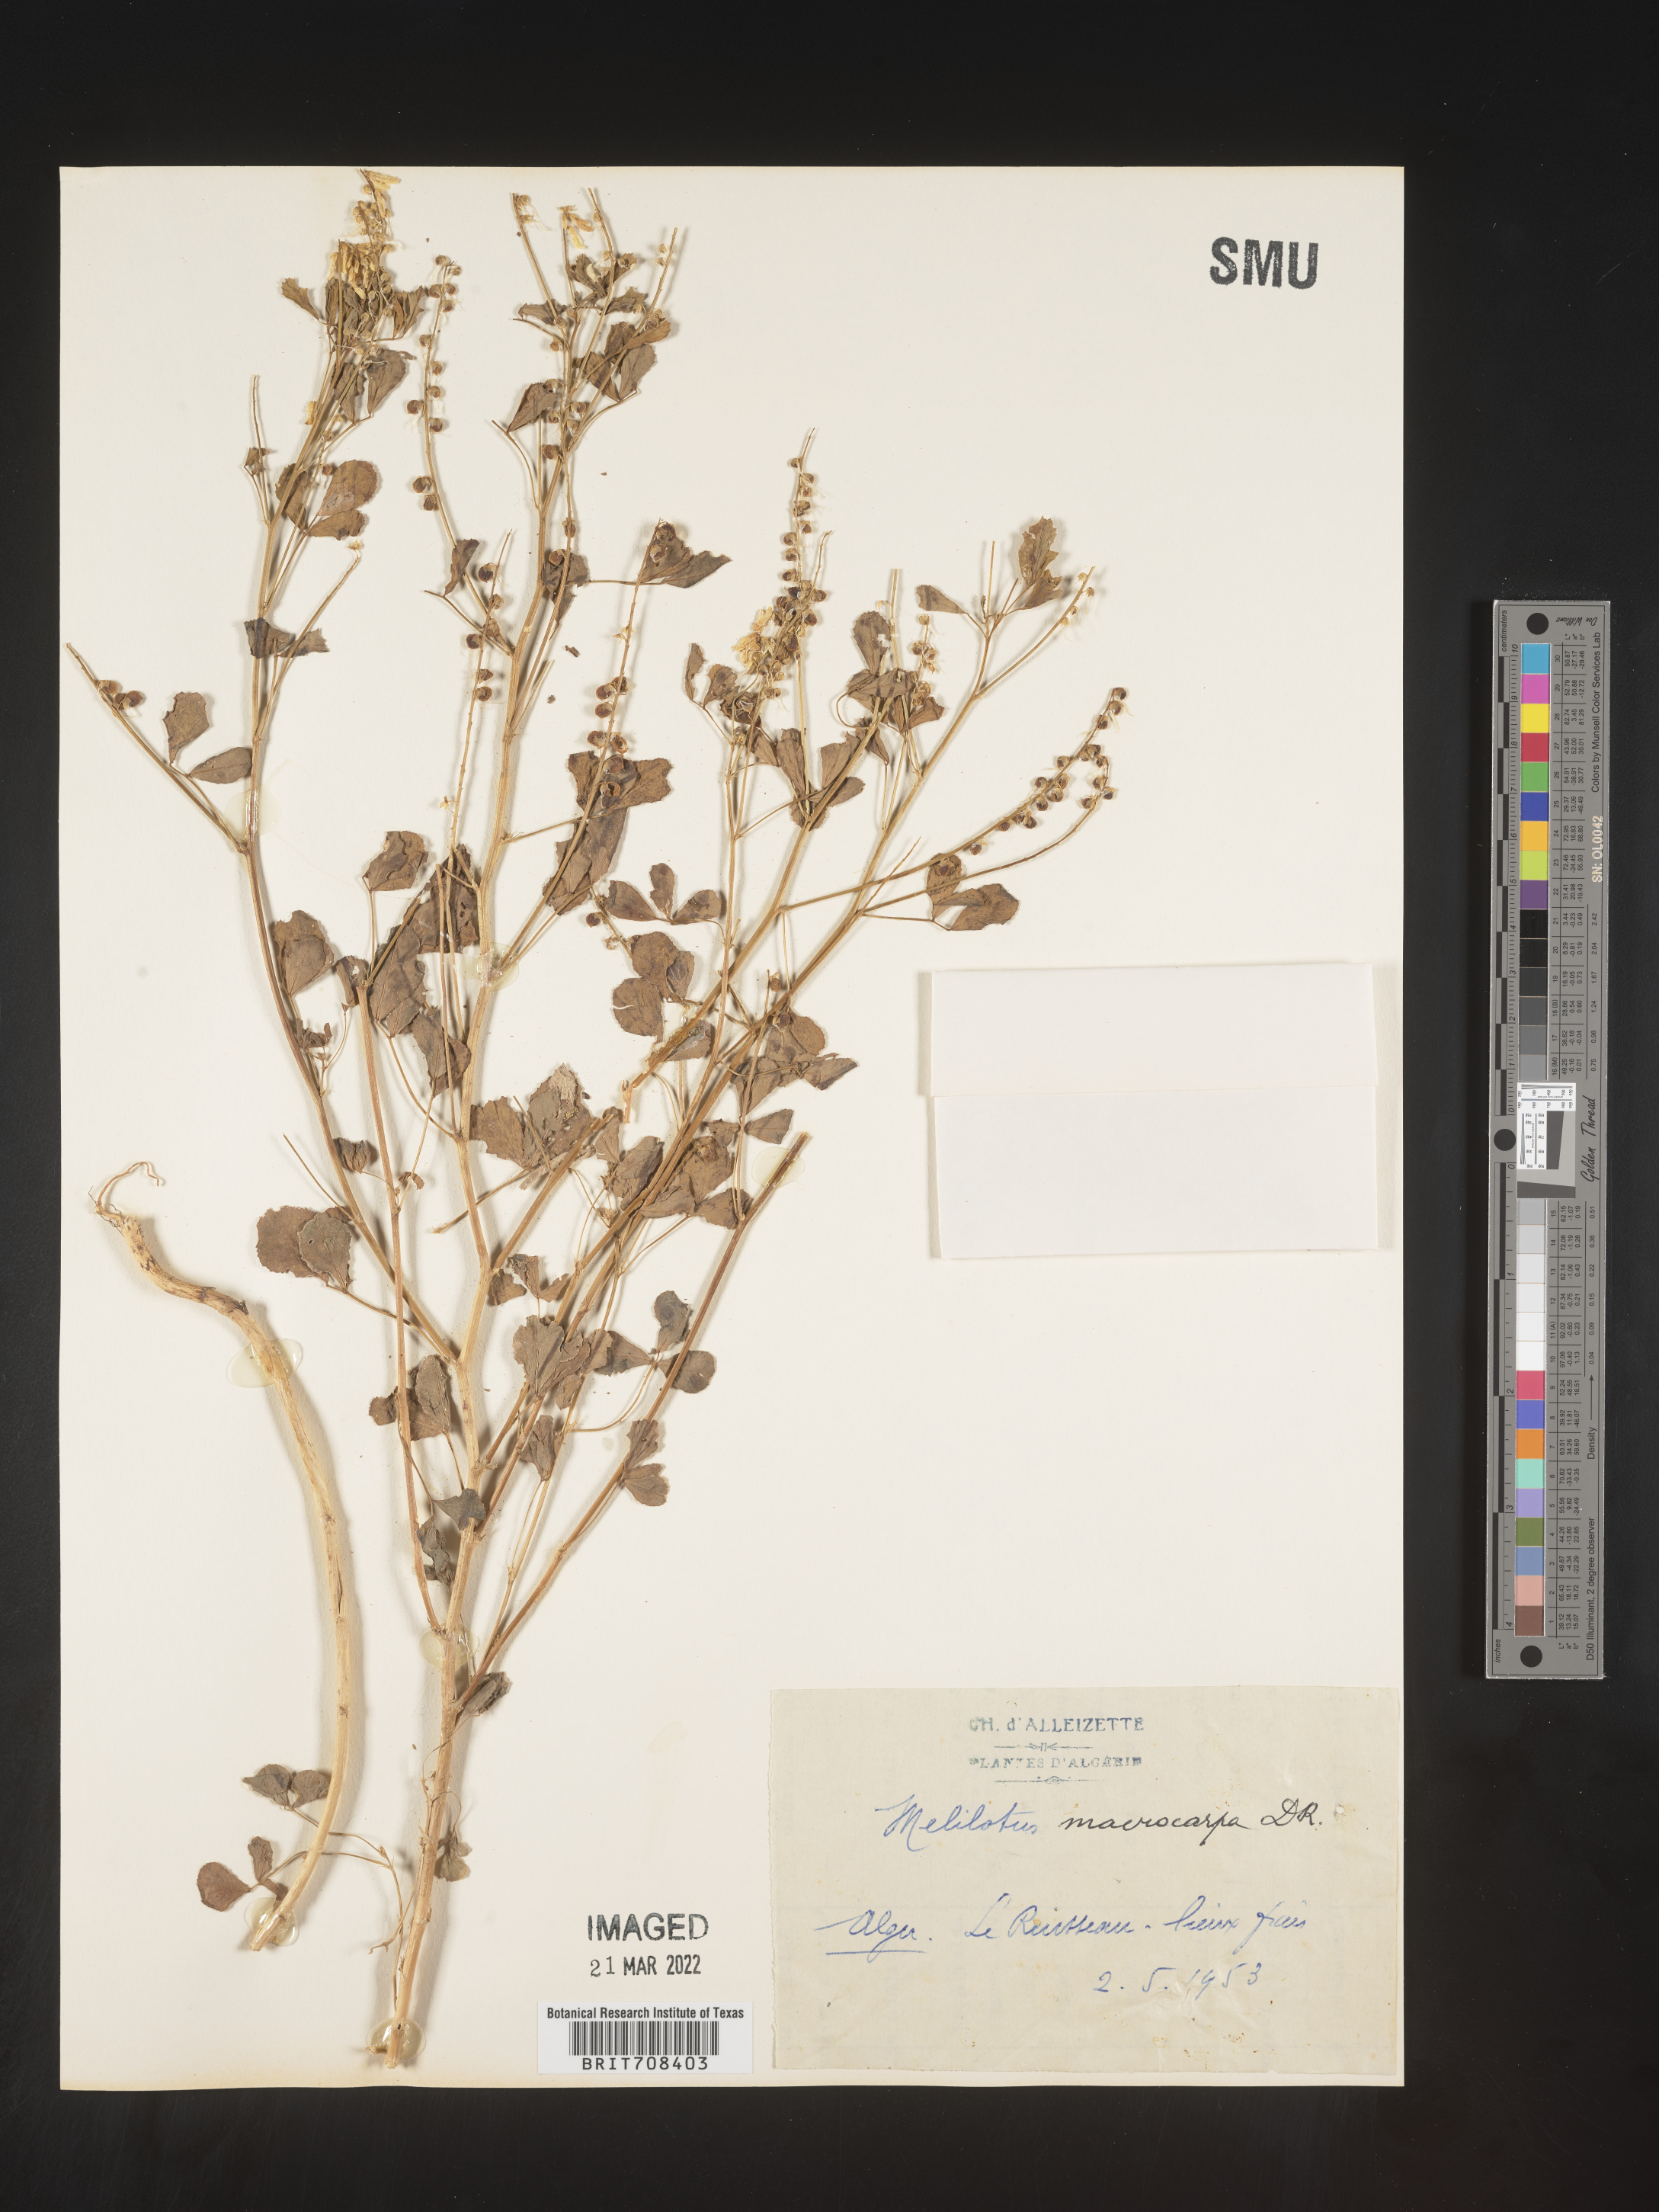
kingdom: Plantae
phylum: Tracheophyta
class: Magnoliopsida
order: Fabales
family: Fabaceae
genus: Melilotus
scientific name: Melilotus
